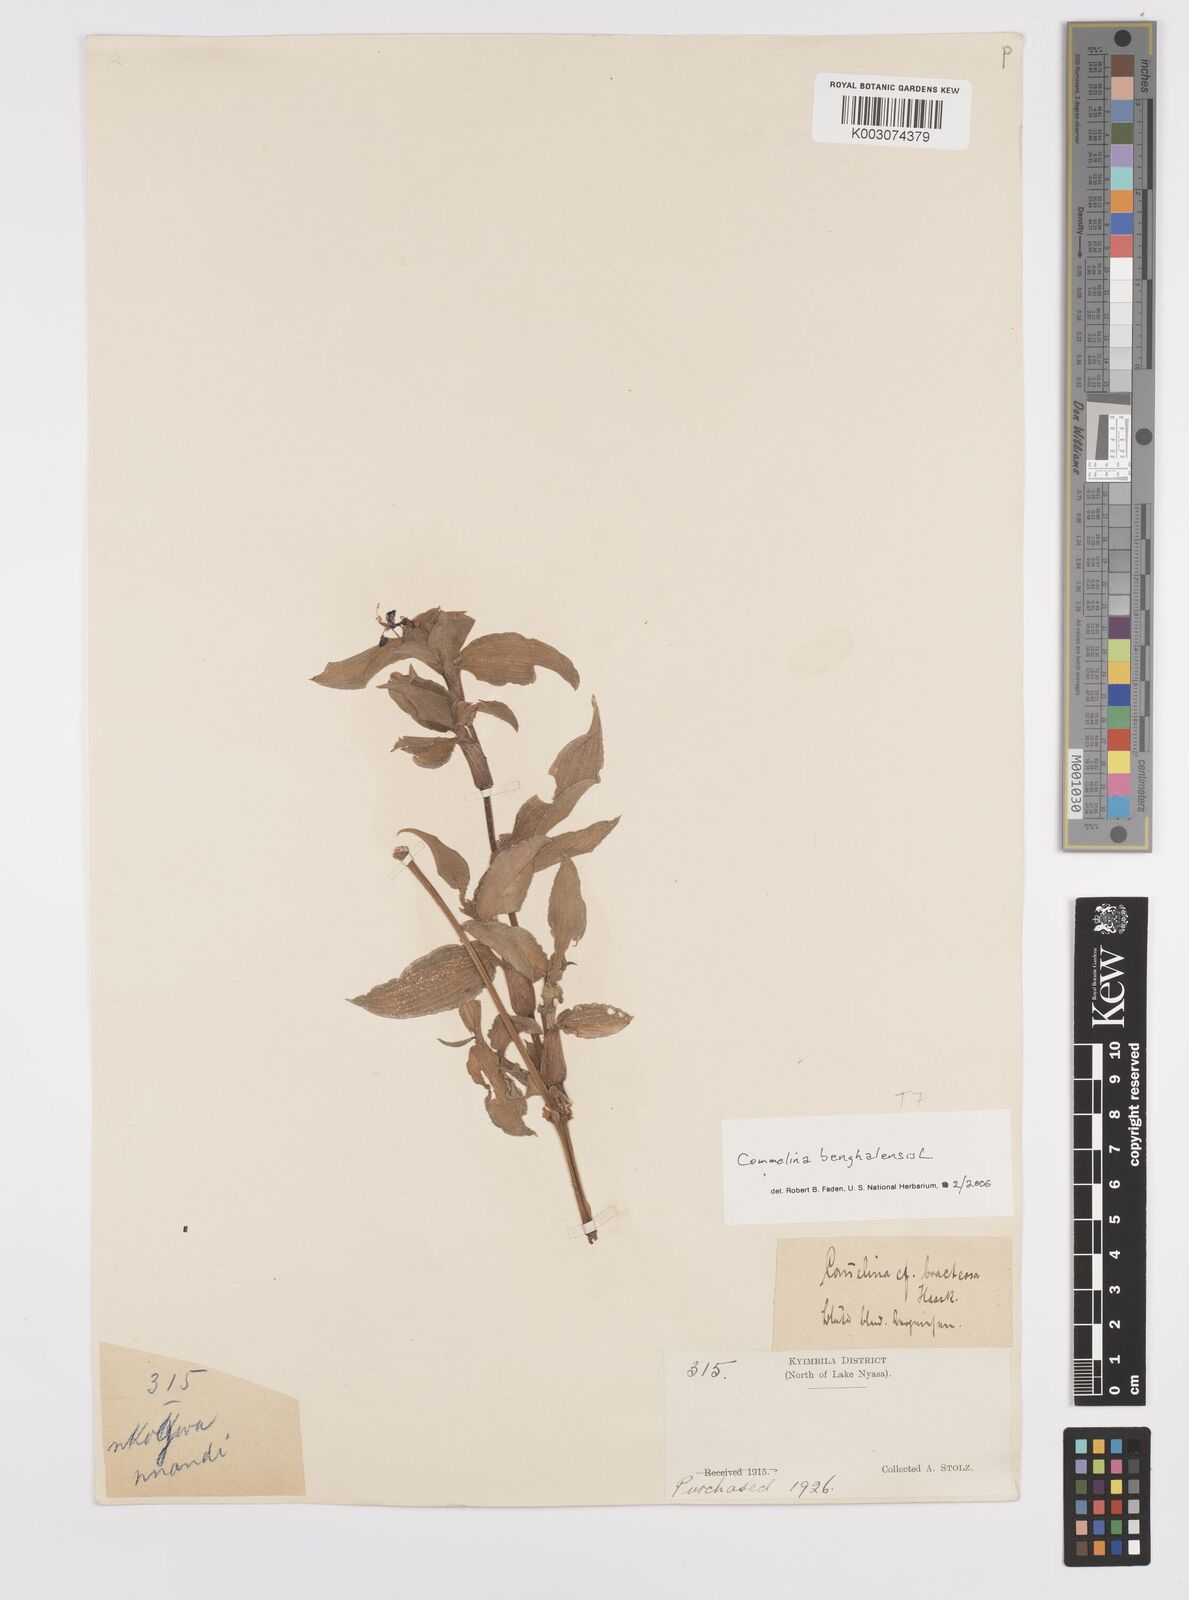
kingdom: Plantae
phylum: Tracheophyta
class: Liliopsida
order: Commelinales
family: Commelinaceae
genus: Commelina
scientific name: Commelina benghalensis
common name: Jio
